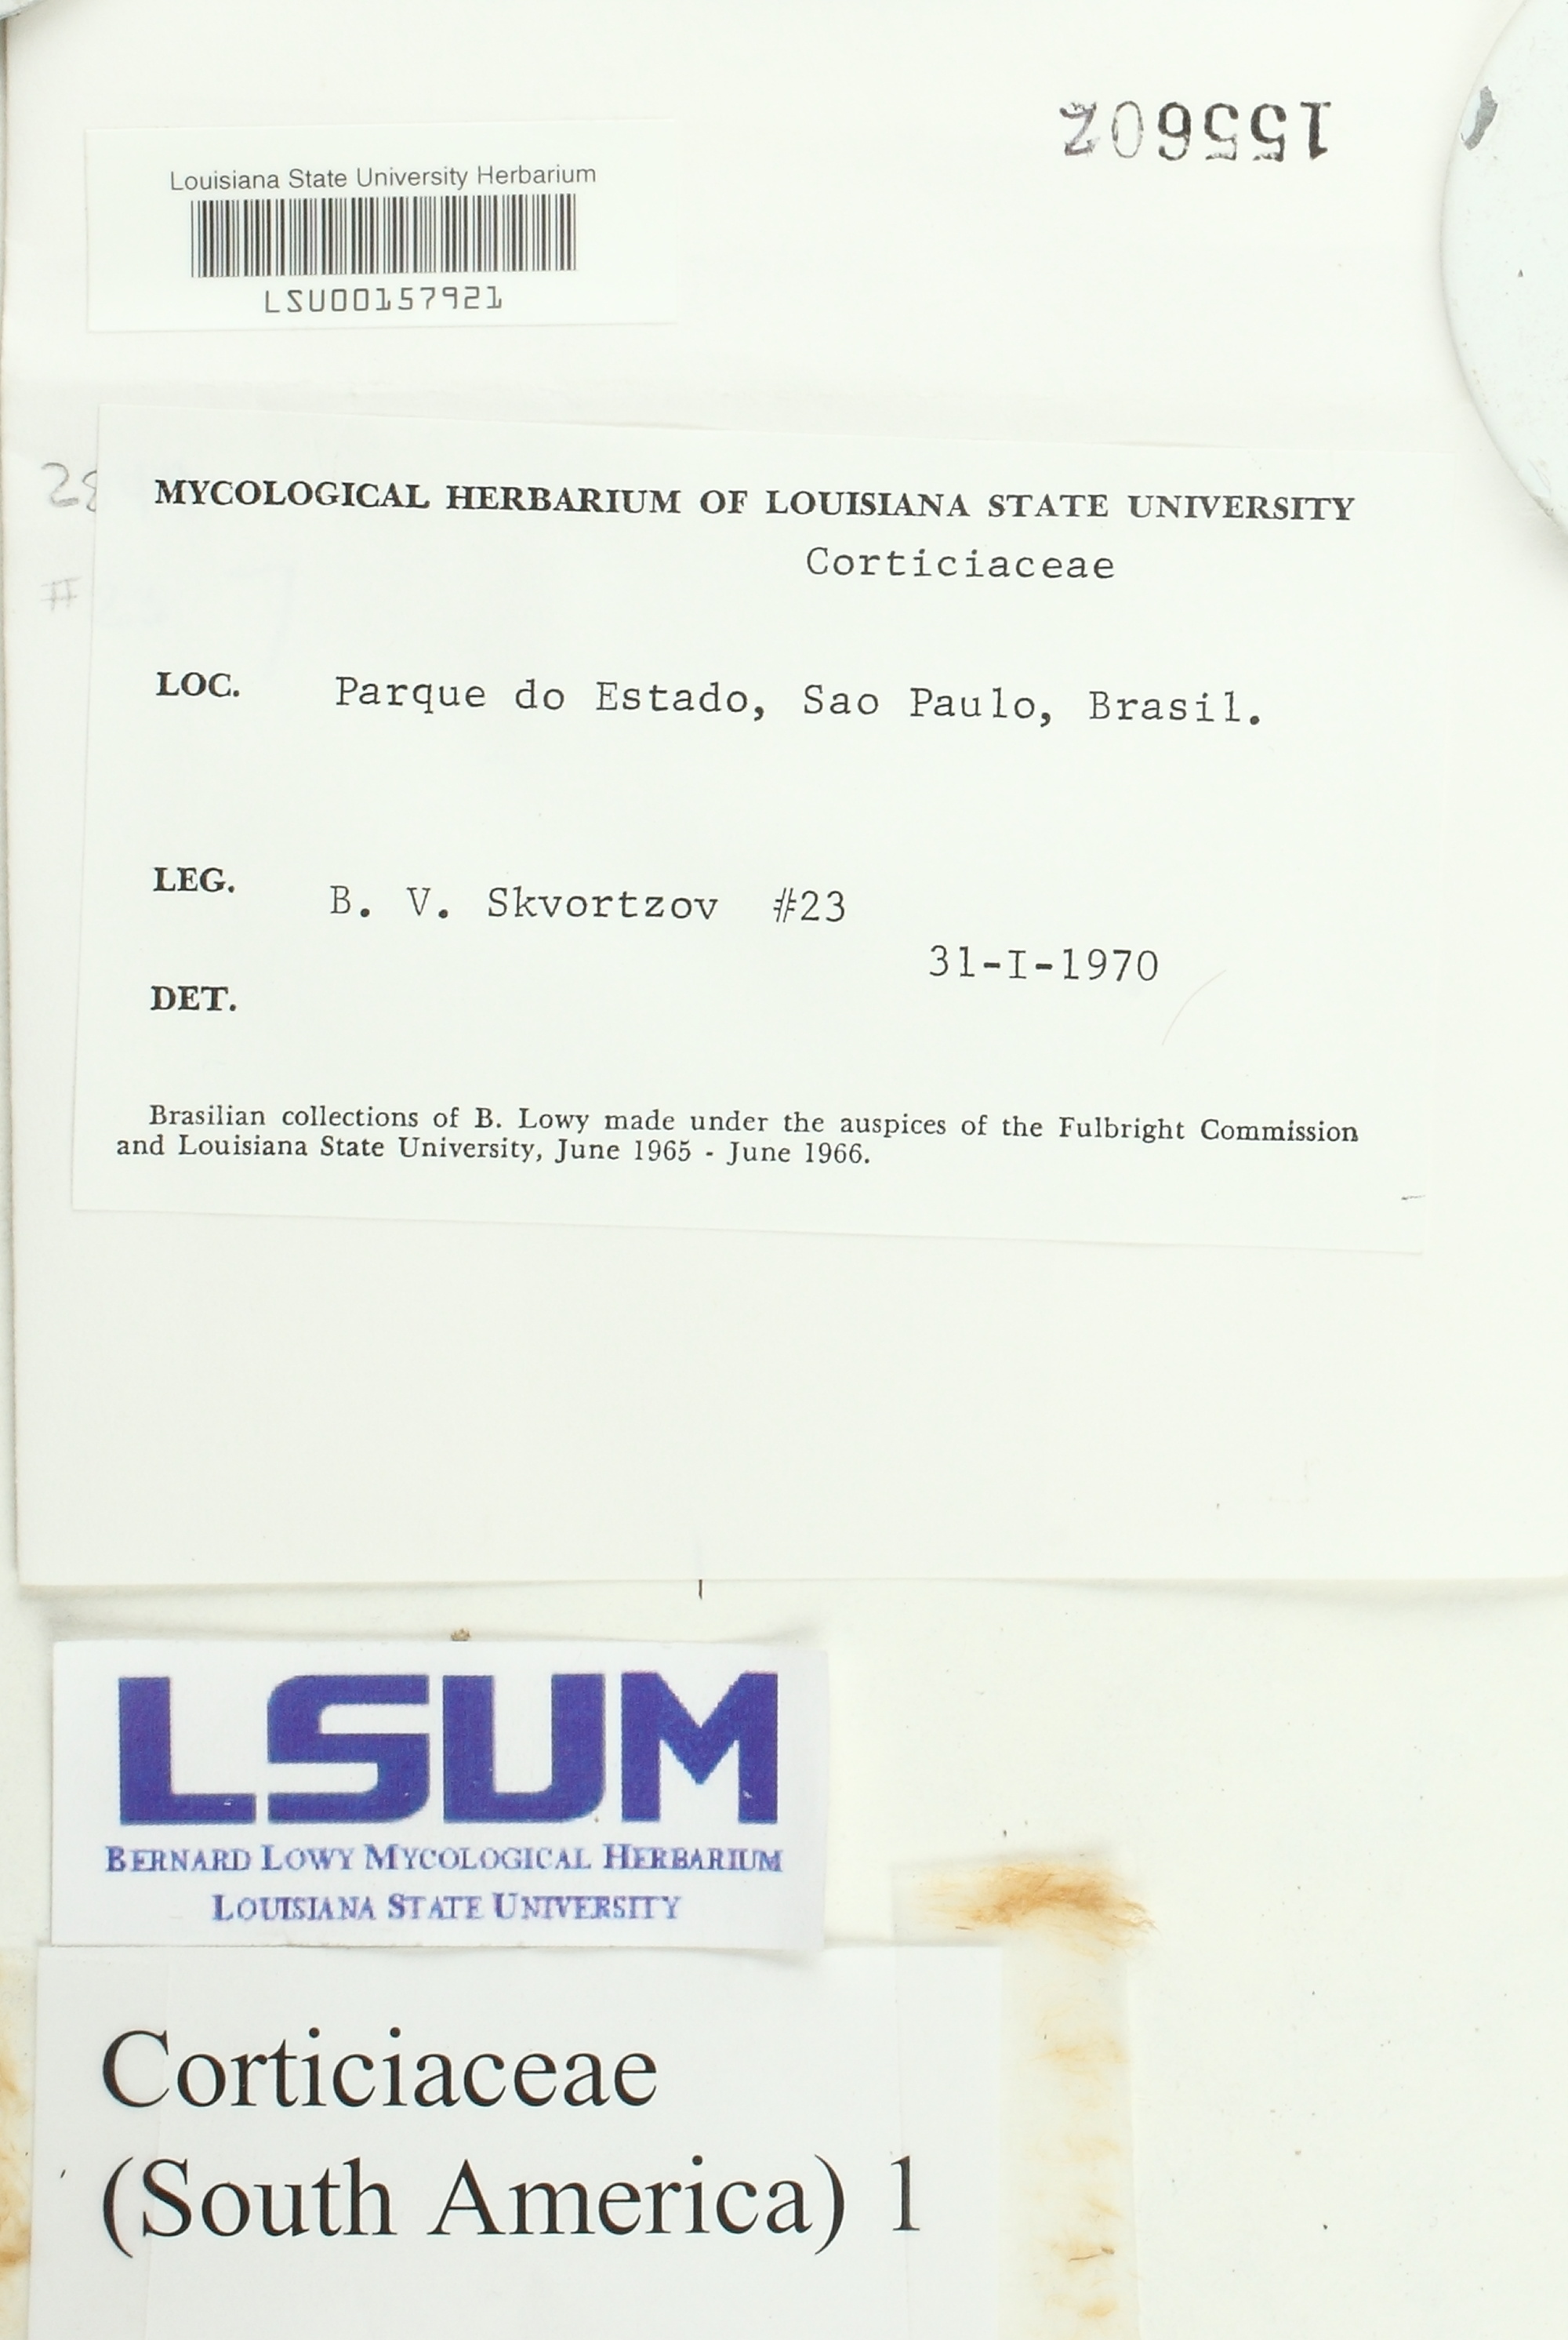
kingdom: Fungi
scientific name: Fungi
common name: Fungi
